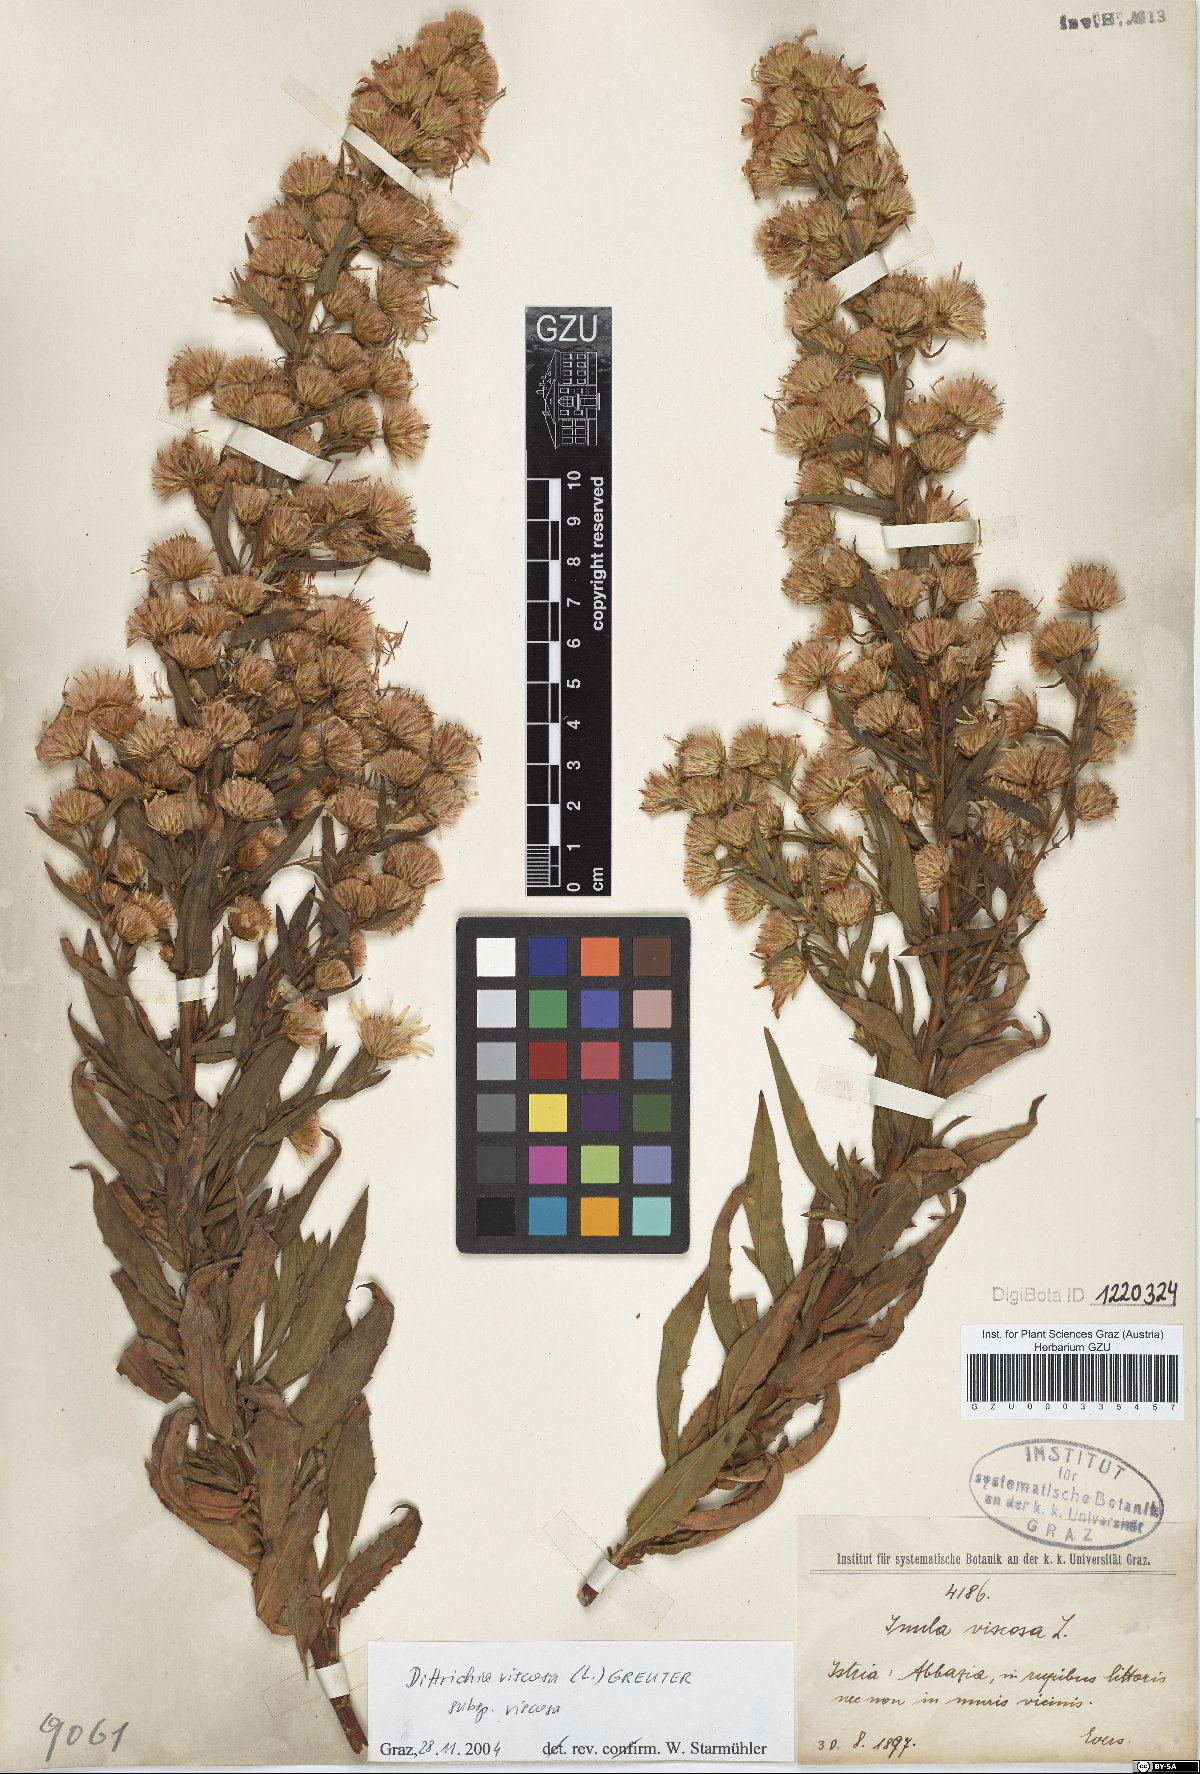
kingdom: Plantae
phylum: Tracheophyta
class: Magnoliopsida
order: Asterales
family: Asteraceae
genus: Dittrichia
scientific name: Dittrichia viscosa
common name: Woody fleabane
